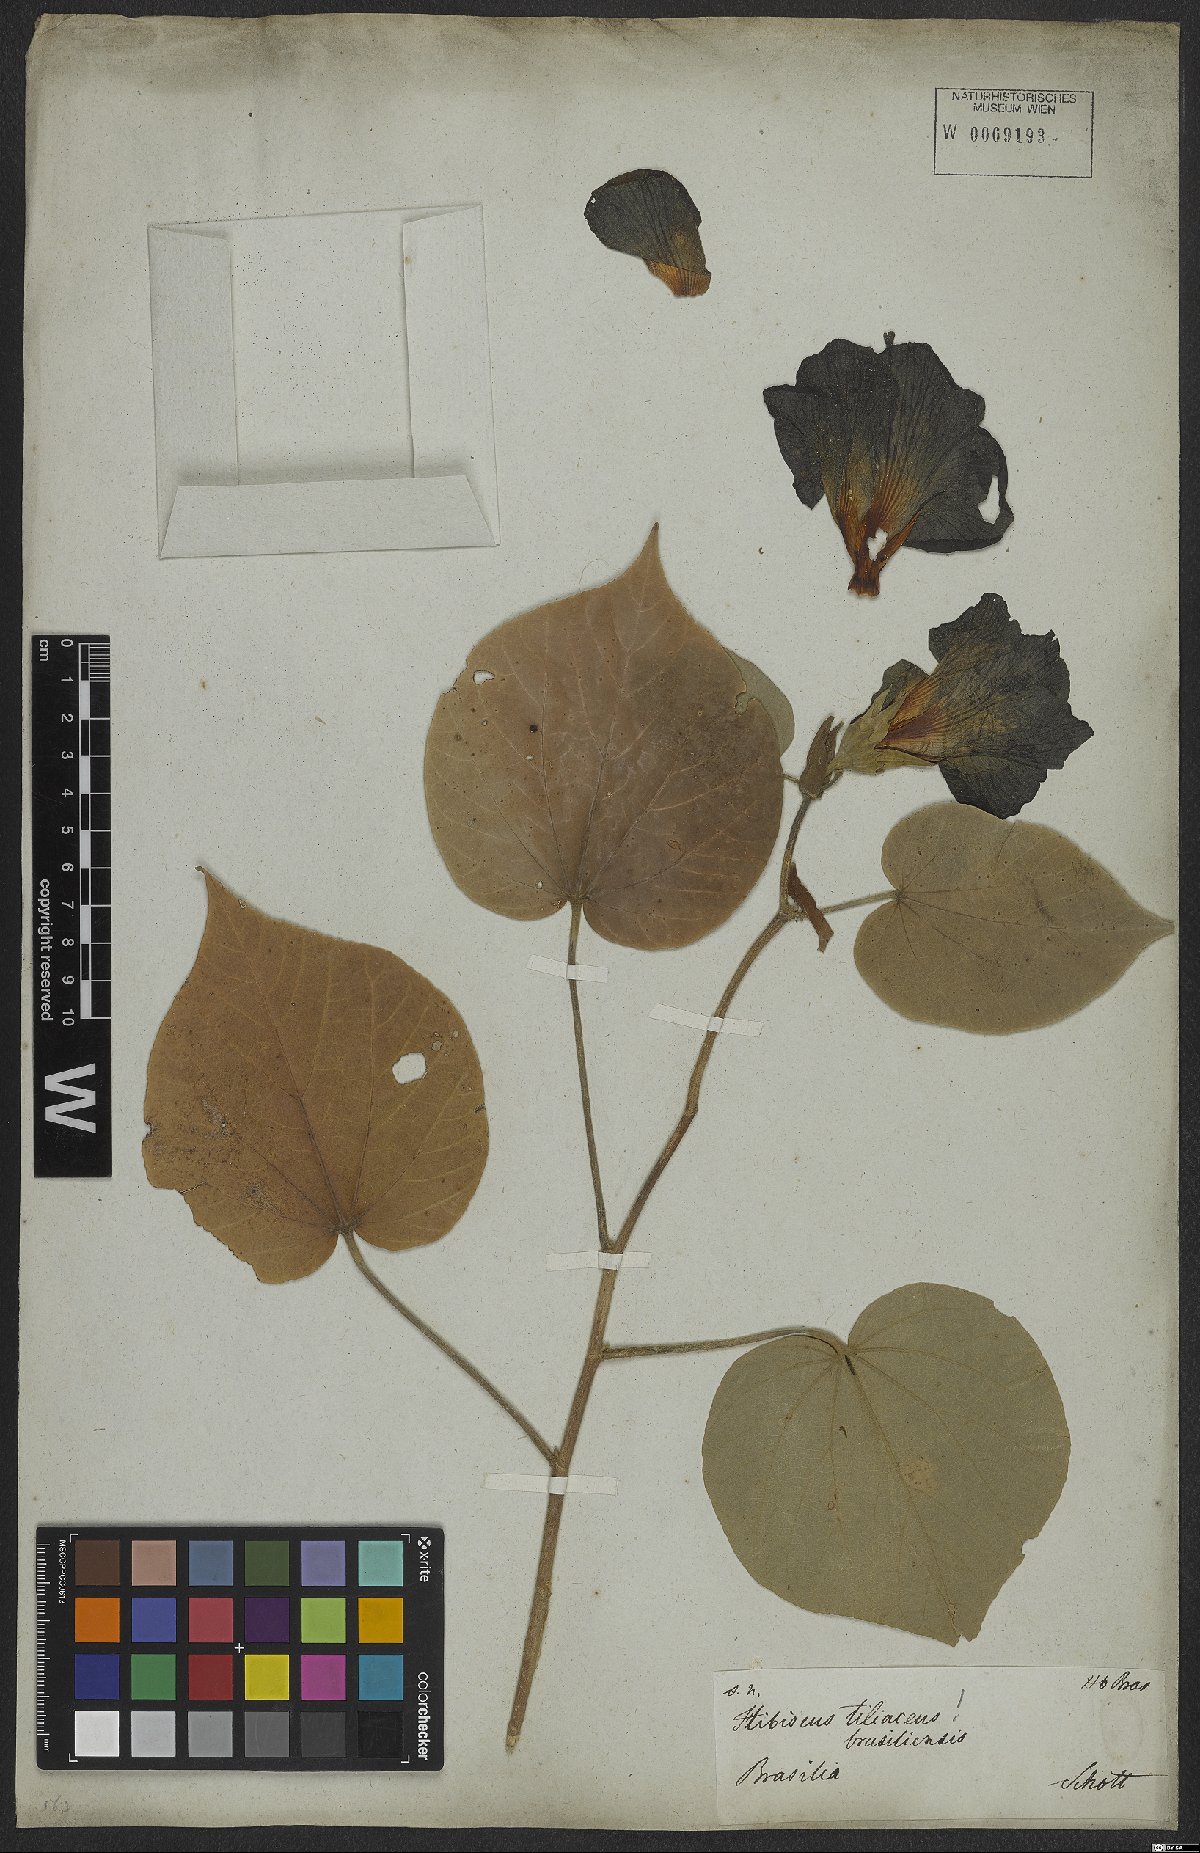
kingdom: Plantae
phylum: Tracheophyta
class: Magnoliopsida
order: Malvales
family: Malvaceae
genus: Talipariti
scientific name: Talipariti tiliaceum
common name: Sea hibiscus
